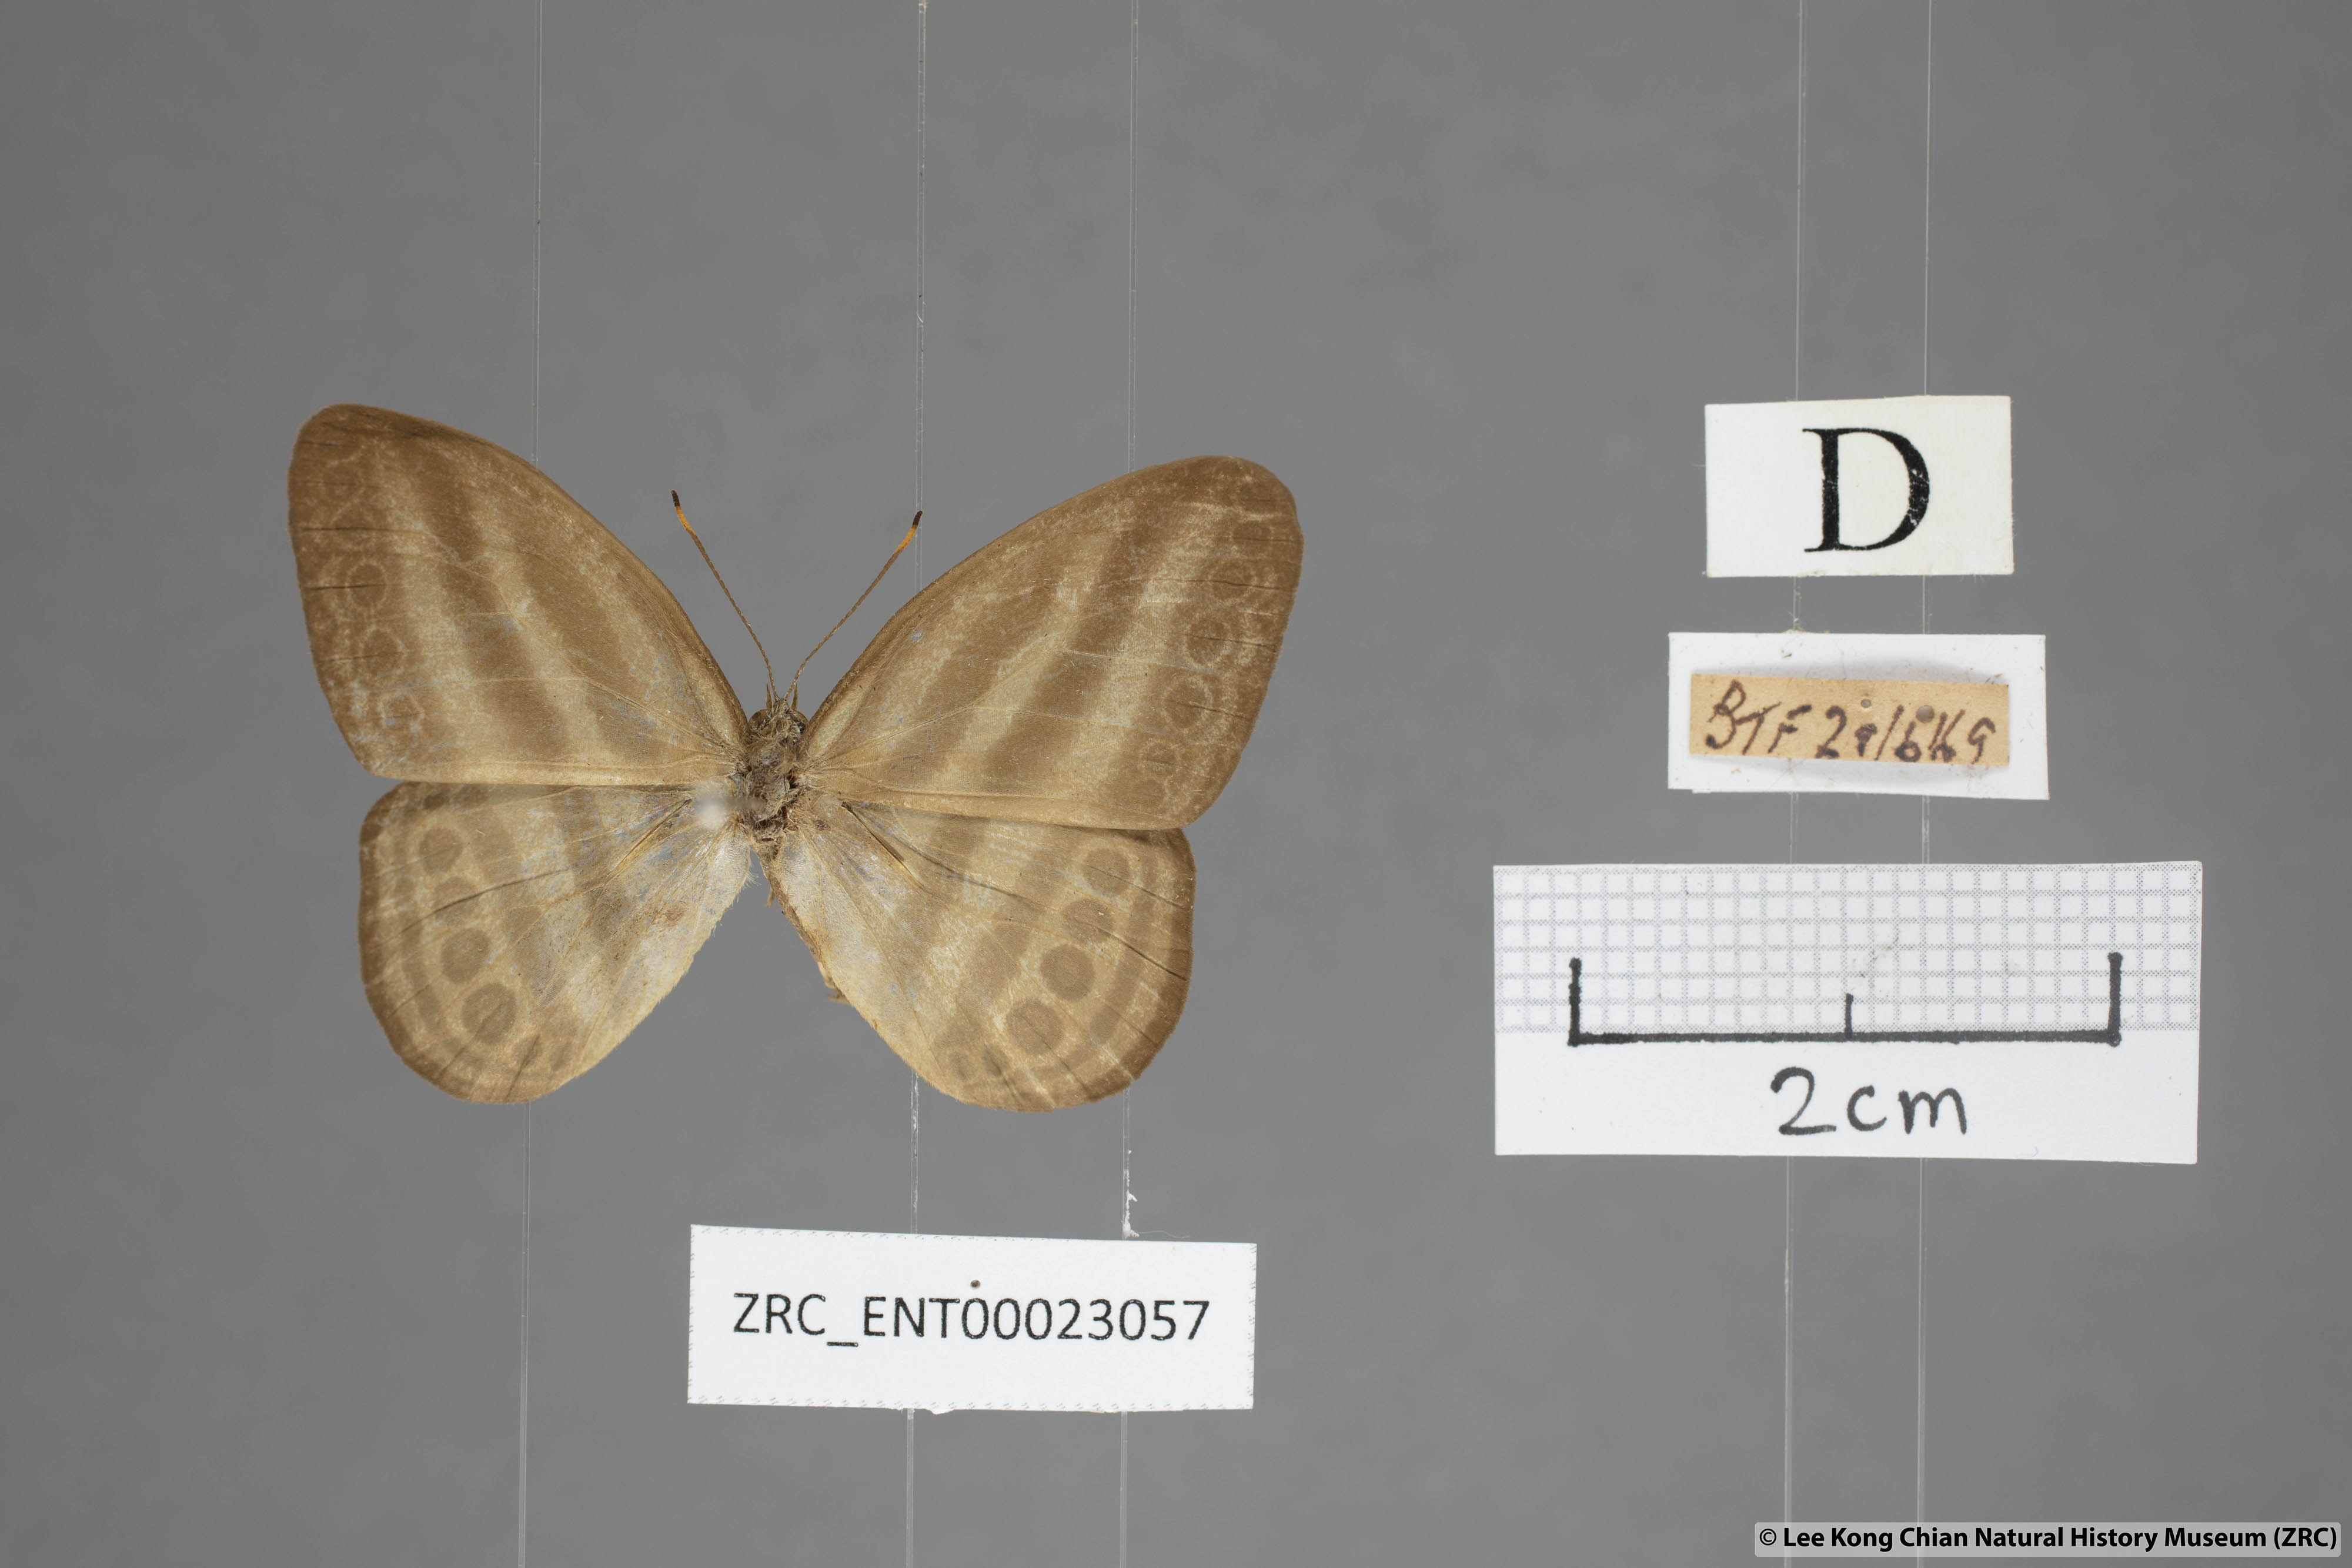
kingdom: Animalia
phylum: Arthropoda
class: Insecta
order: Lepidoptera
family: Nymphalidae
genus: Ragadia
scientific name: Ragadia makata
